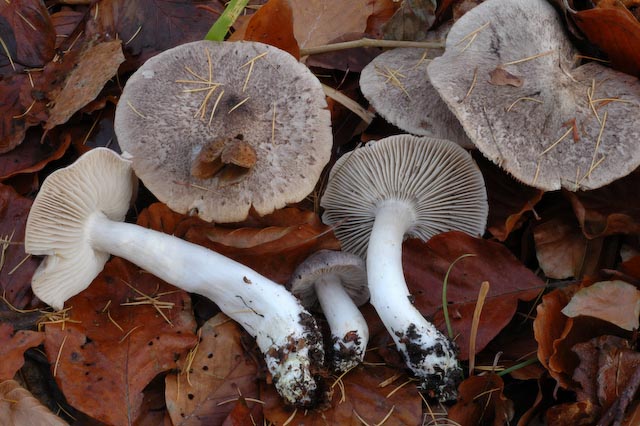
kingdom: Fungi
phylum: Basidiomycota
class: Agaricomycetes
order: Agaricales
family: Tricholomataceae
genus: Tricholoma
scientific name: Tricholoma orirubens
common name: rødbladet ridderhat
